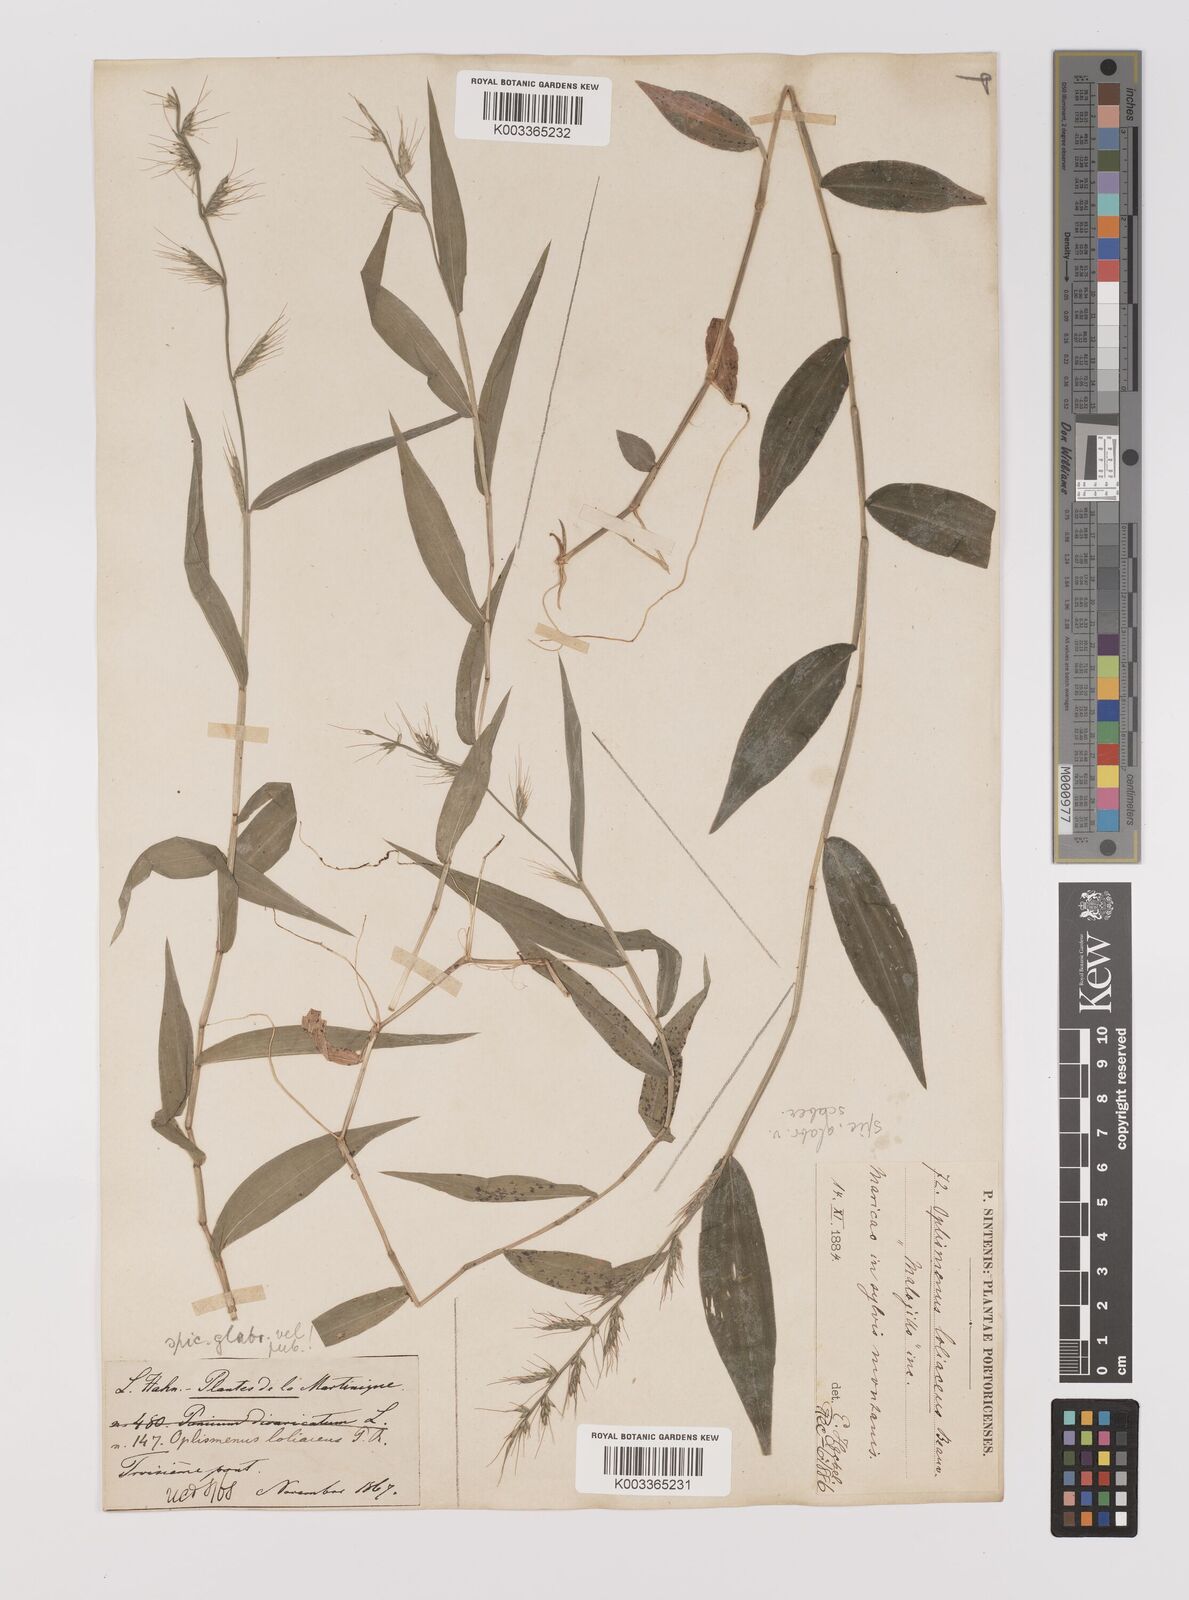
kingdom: Plantae
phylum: Tracheophyta
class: Liliopsida
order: Poales
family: Poaceae
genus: Oplismenus
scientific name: Oplismenus hirtellus
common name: Basketgrass
